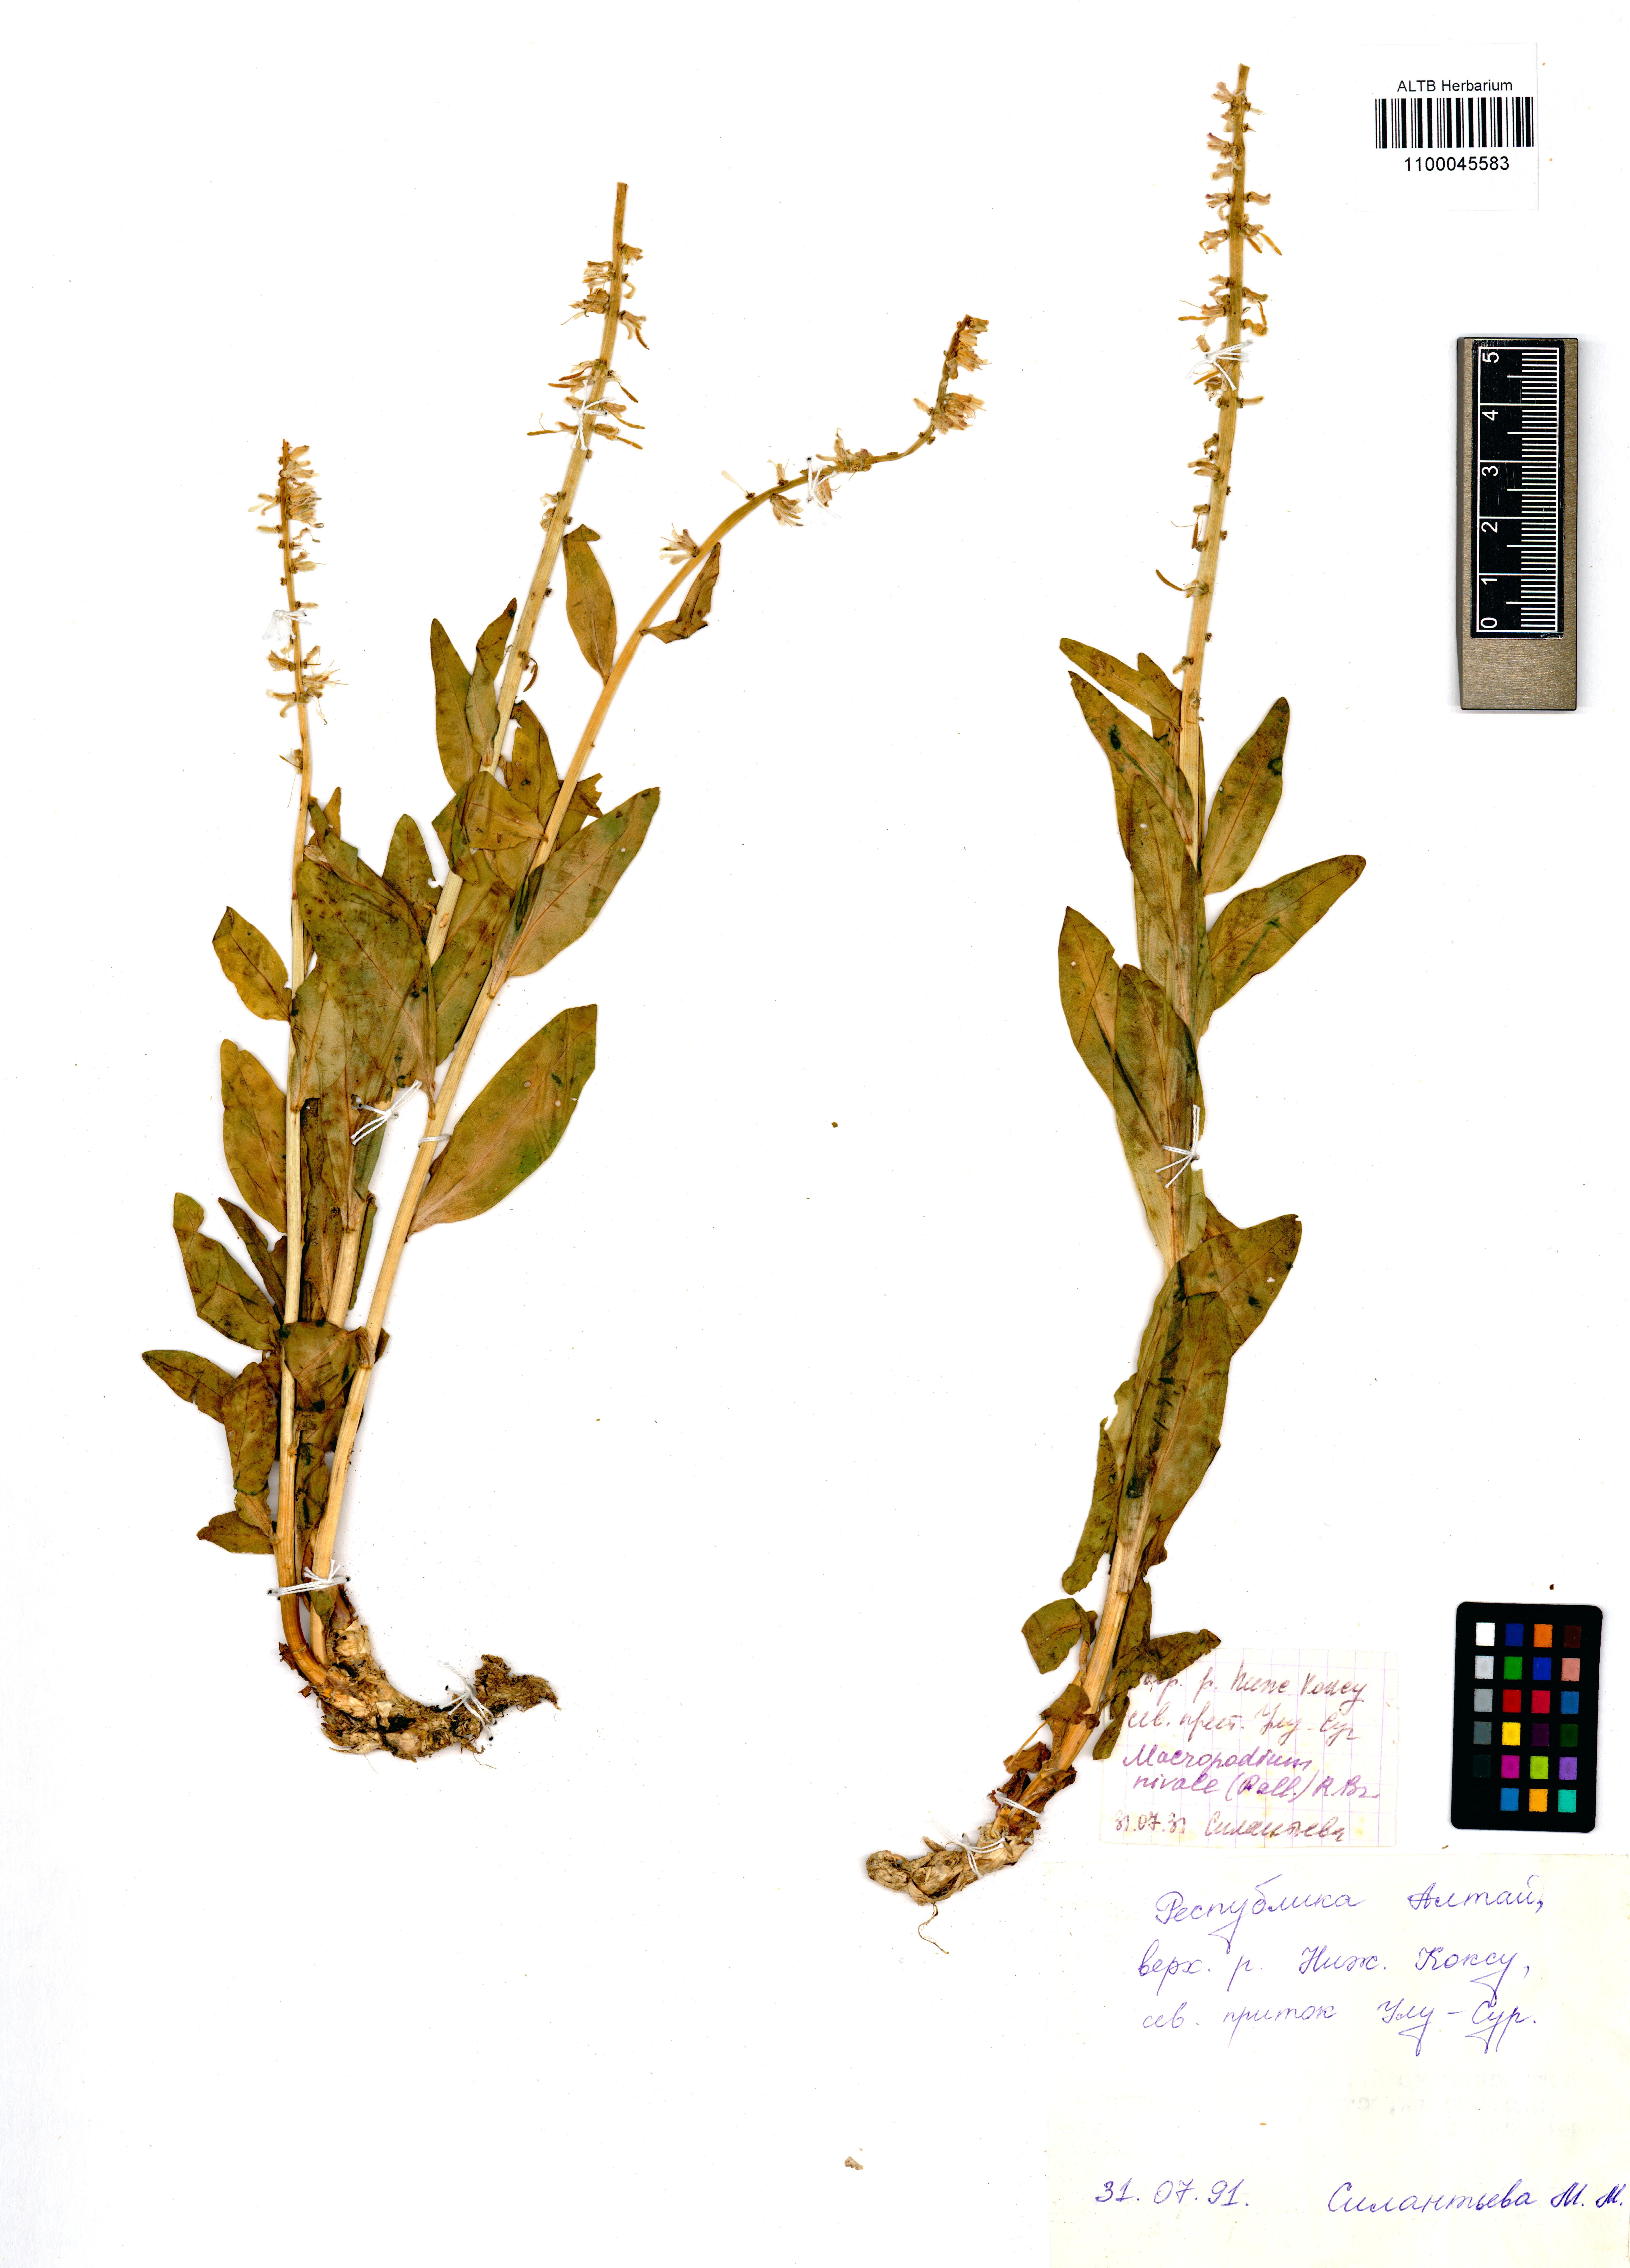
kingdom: Plantae
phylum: Tracheophyta
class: Magnoliopsida
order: Brassicales
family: Brassicaceae
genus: Macropodium
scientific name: Macropodium nivale
